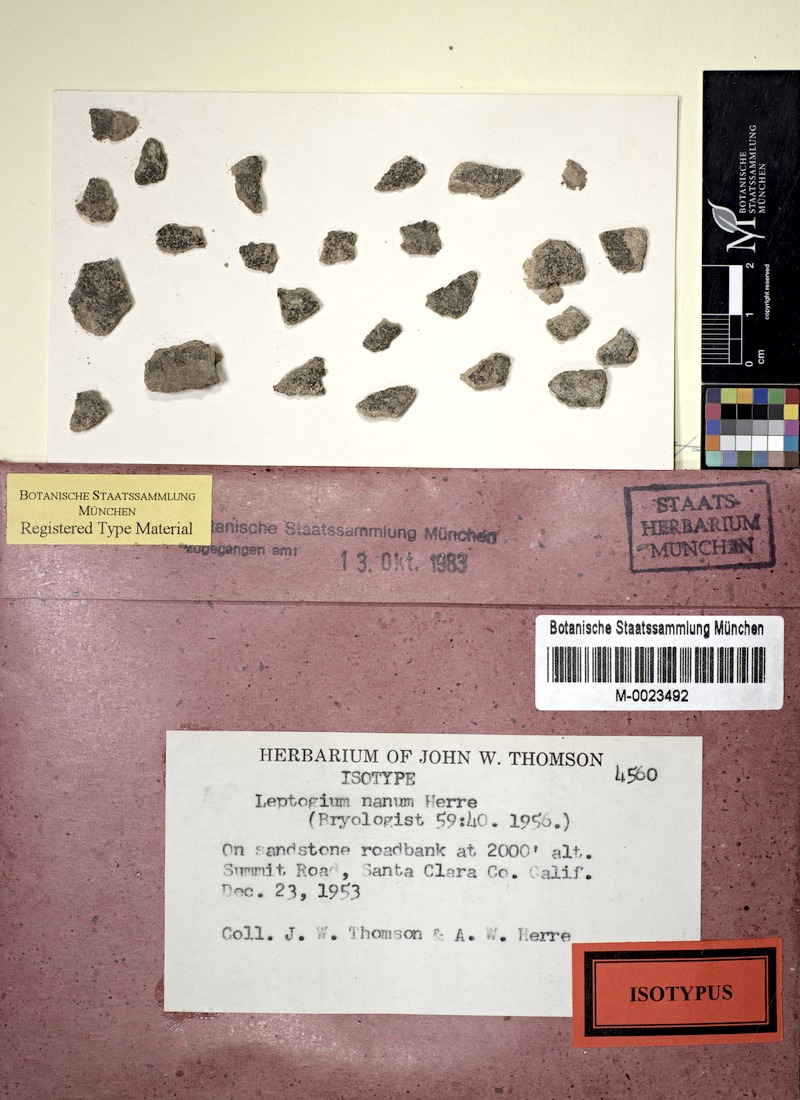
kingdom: Fungi
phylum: Ascomycota
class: Lecanoromycetes
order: Peltigerales
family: Collemataceae
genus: Scytinium
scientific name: Scytinium tenuissimum
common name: Birdnest jellyskin lichen
